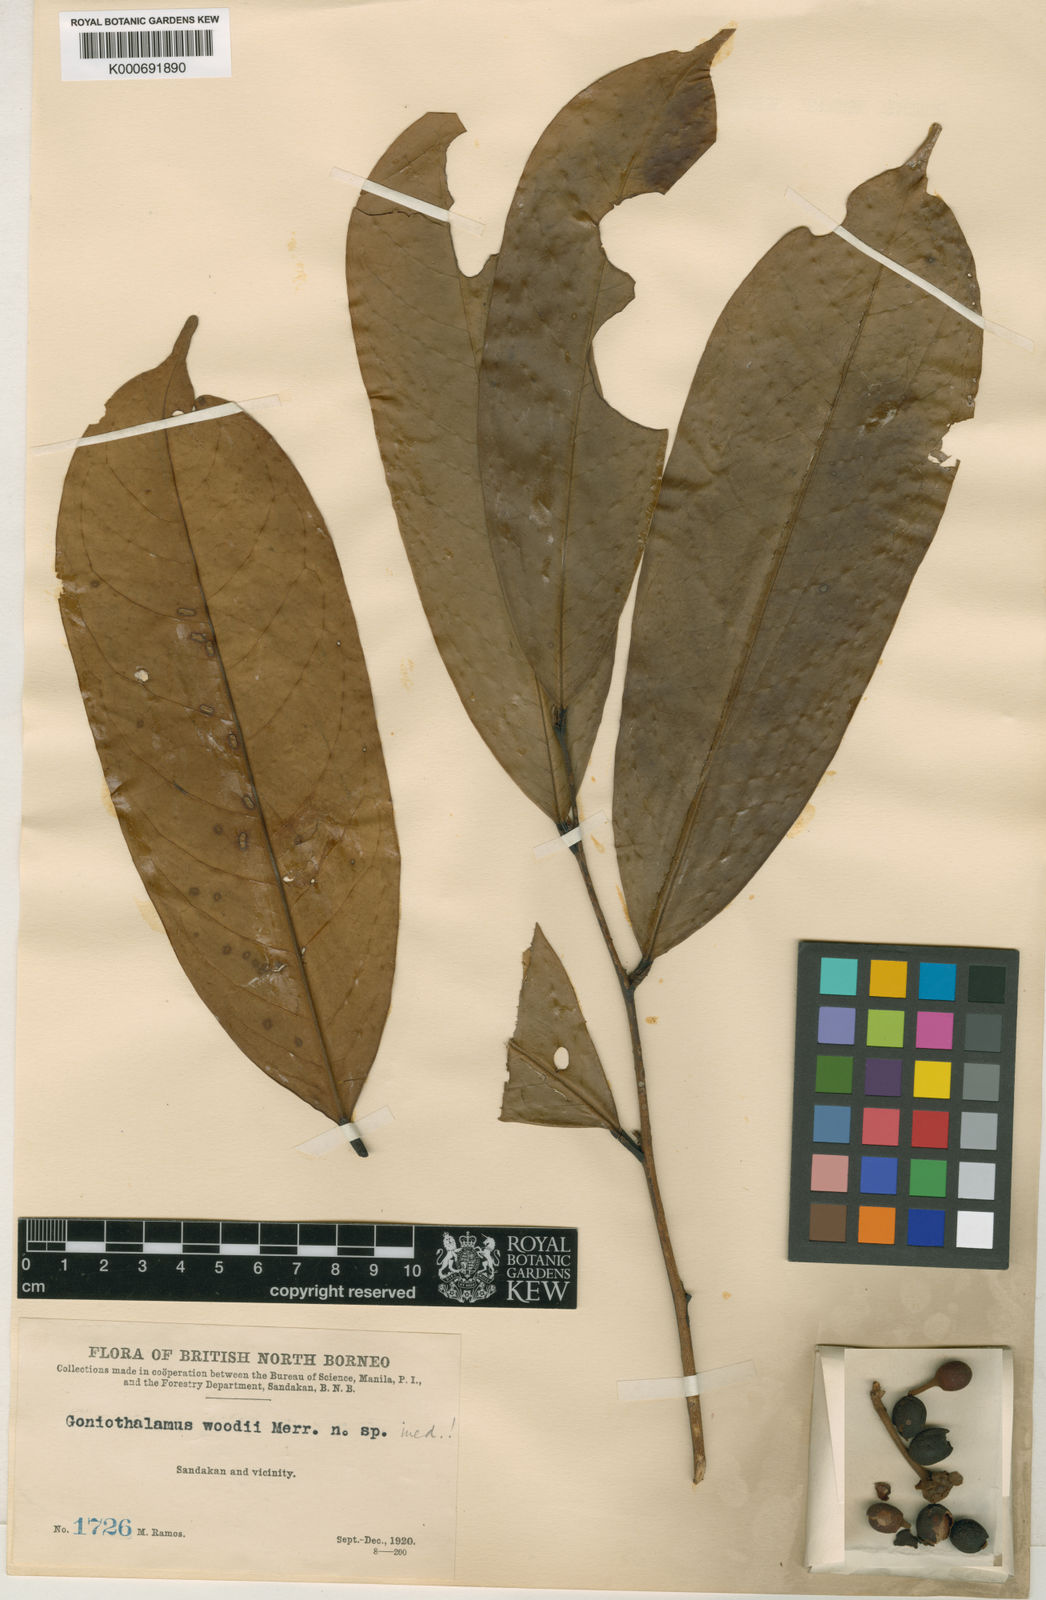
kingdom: Plantae
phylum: Tracheophyta
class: Magnoliopsida
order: Magnoliales
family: Annonaceae
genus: Goniothalamus
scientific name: Goniothalamus woodii
